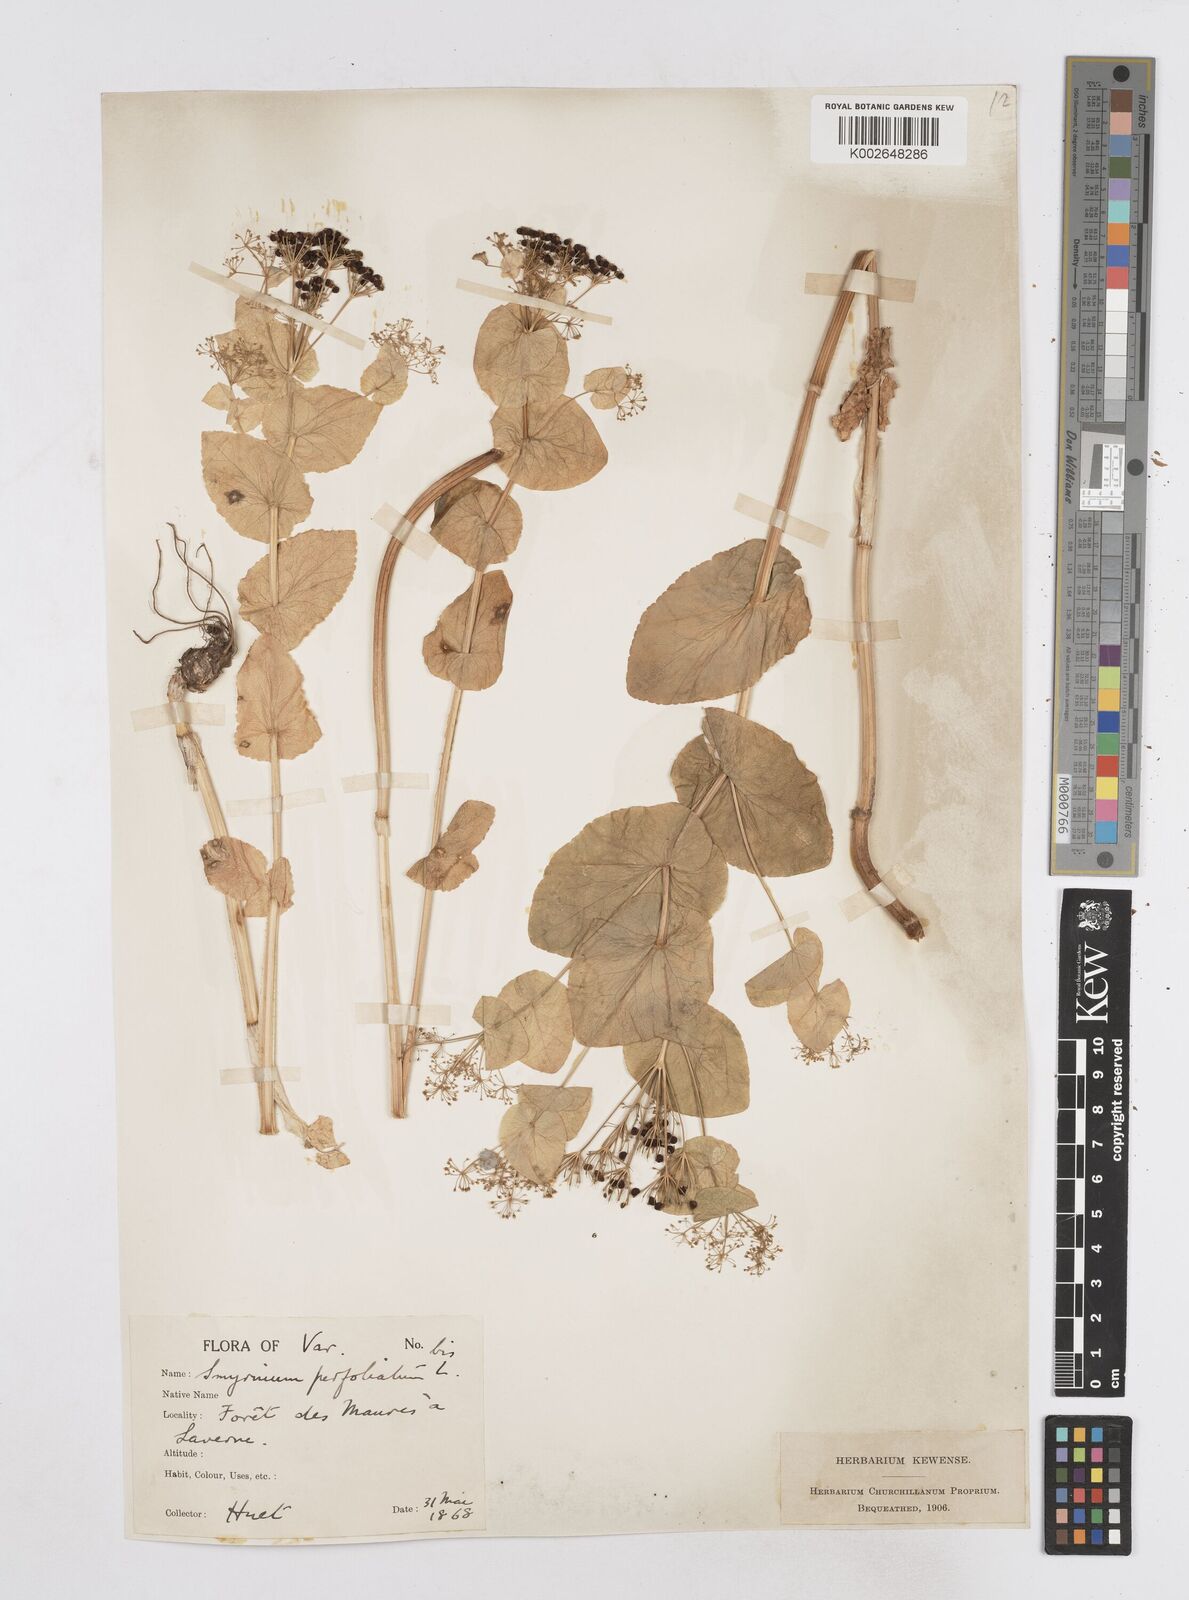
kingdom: Plantae
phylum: Tracheophyta
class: Magnoliopsida
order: Apiales
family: Apiaceae
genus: Smyrnium
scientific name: Smyrnium perfoliatum
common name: Perfoliate alexanders
